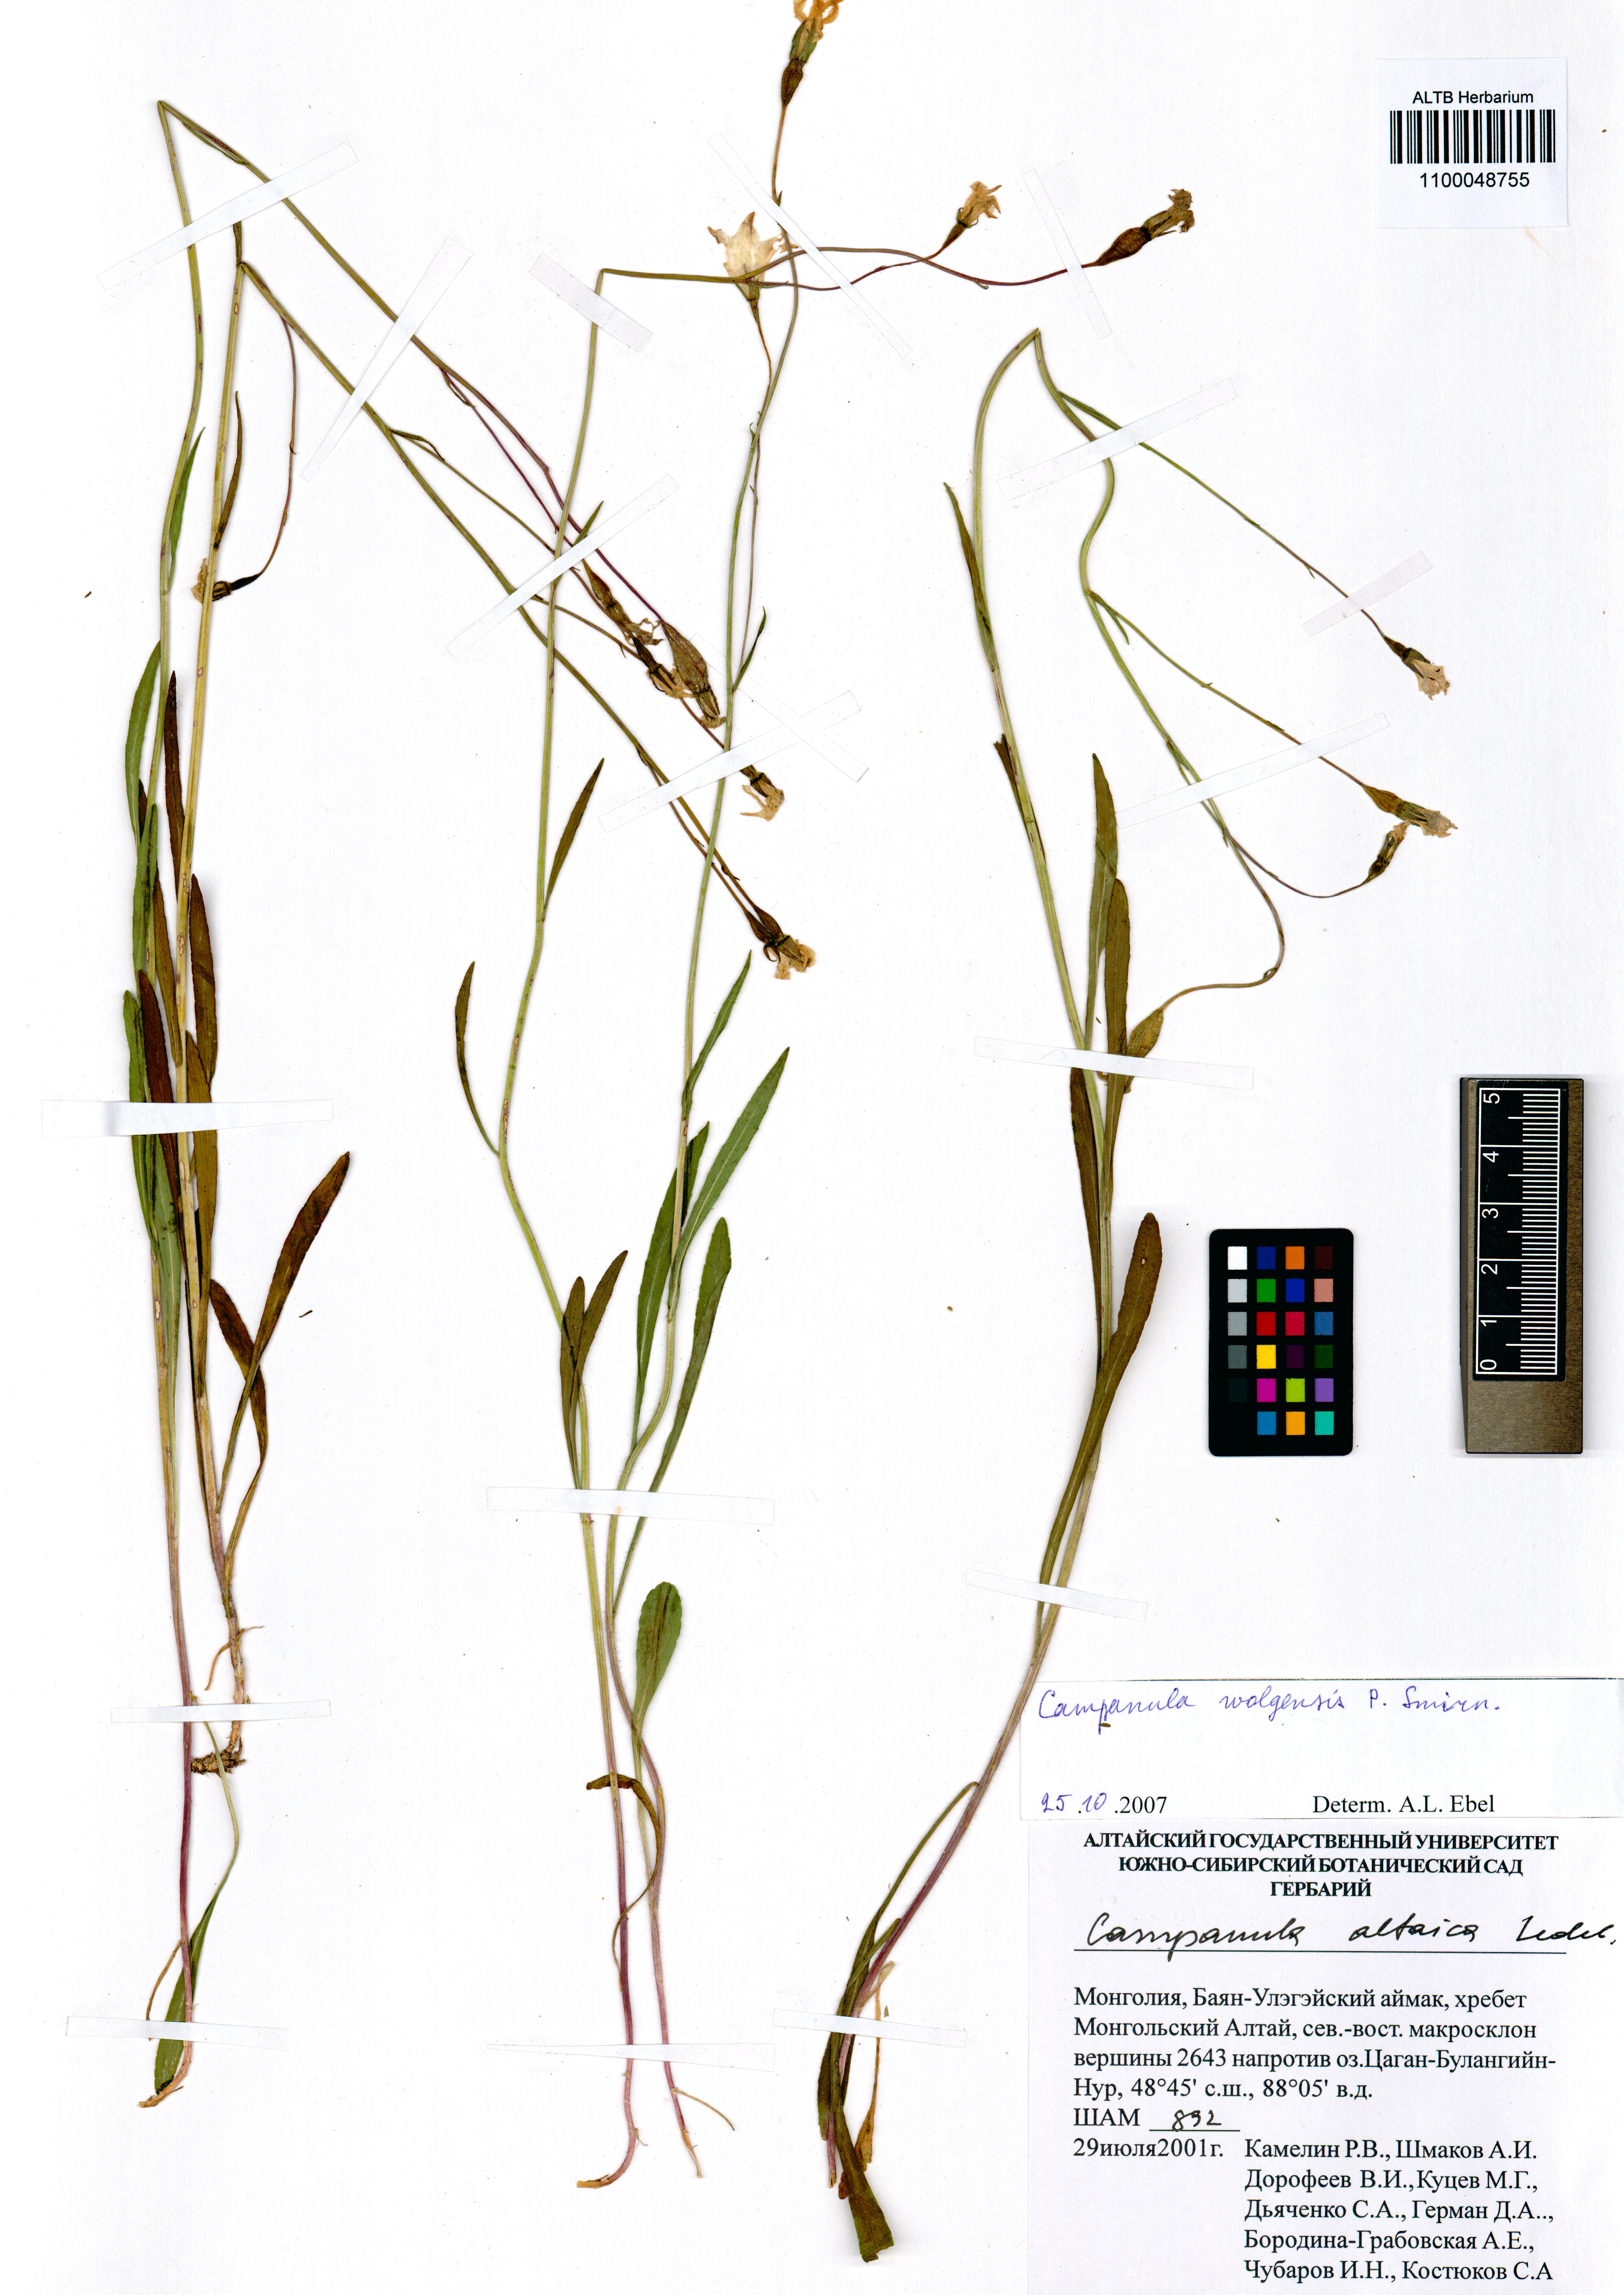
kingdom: Plantae
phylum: Tracheophyta
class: Magnoliopsida
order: Asterales
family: Campanulaceae
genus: Campanula
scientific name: Campanula stevenii
